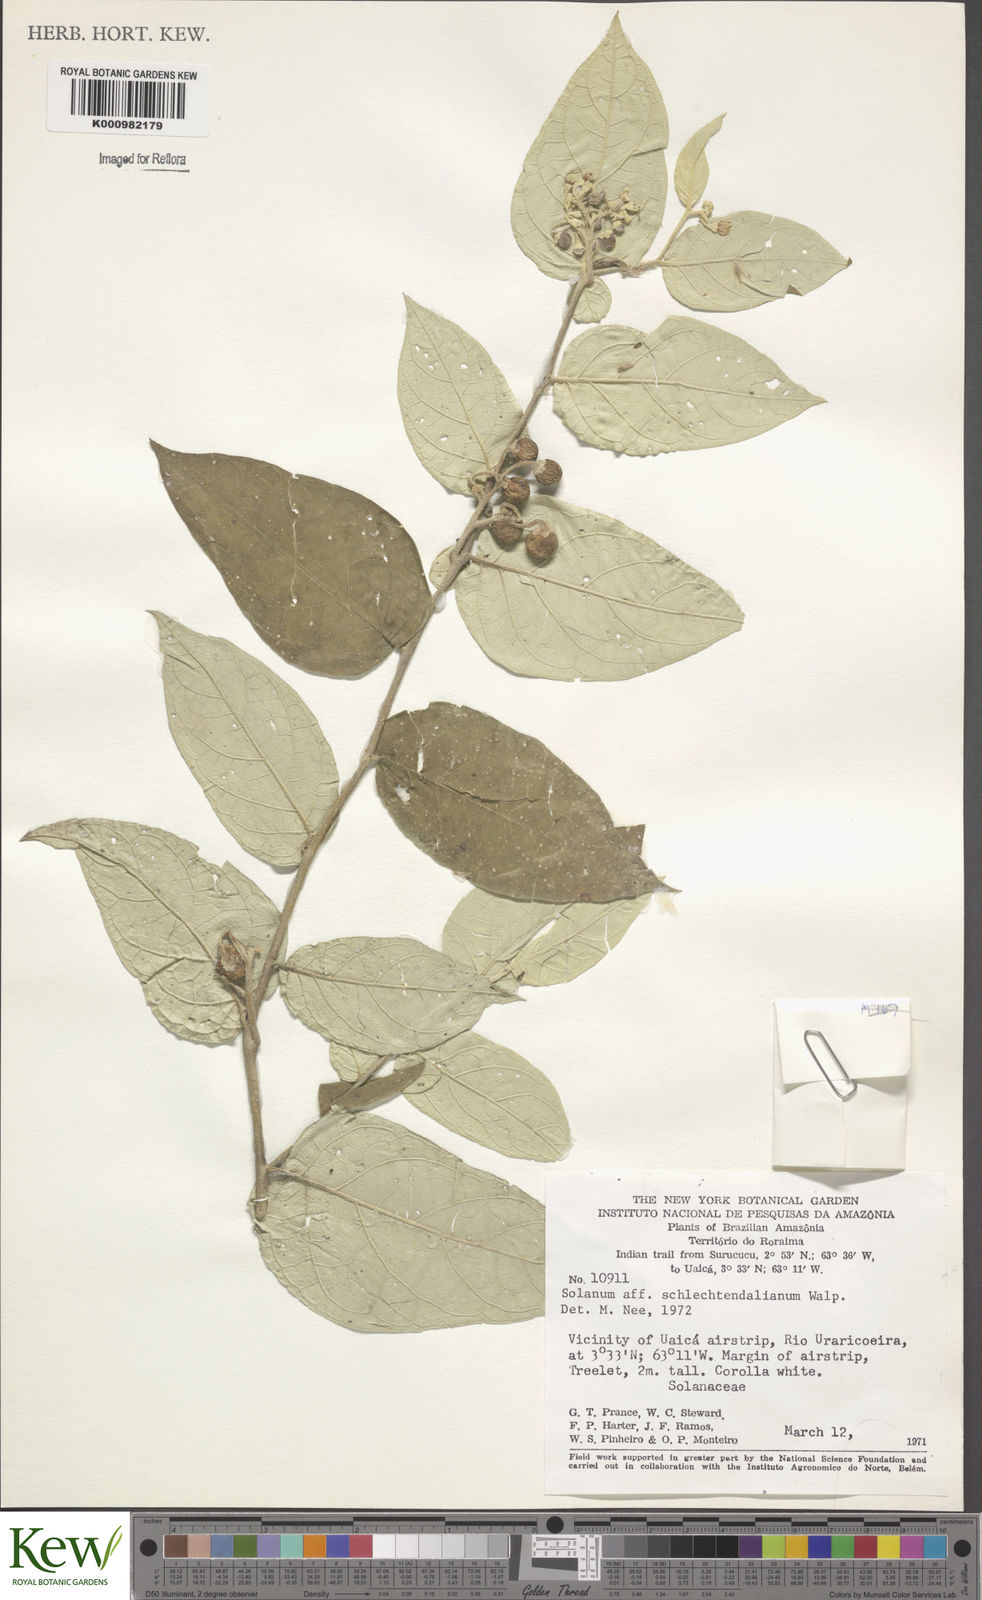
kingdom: Plantae
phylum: Tracheophyta
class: Magnoliopsida
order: Solanales
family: Solanaceae
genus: Solanum
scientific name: Solanum schlechtendalianum
